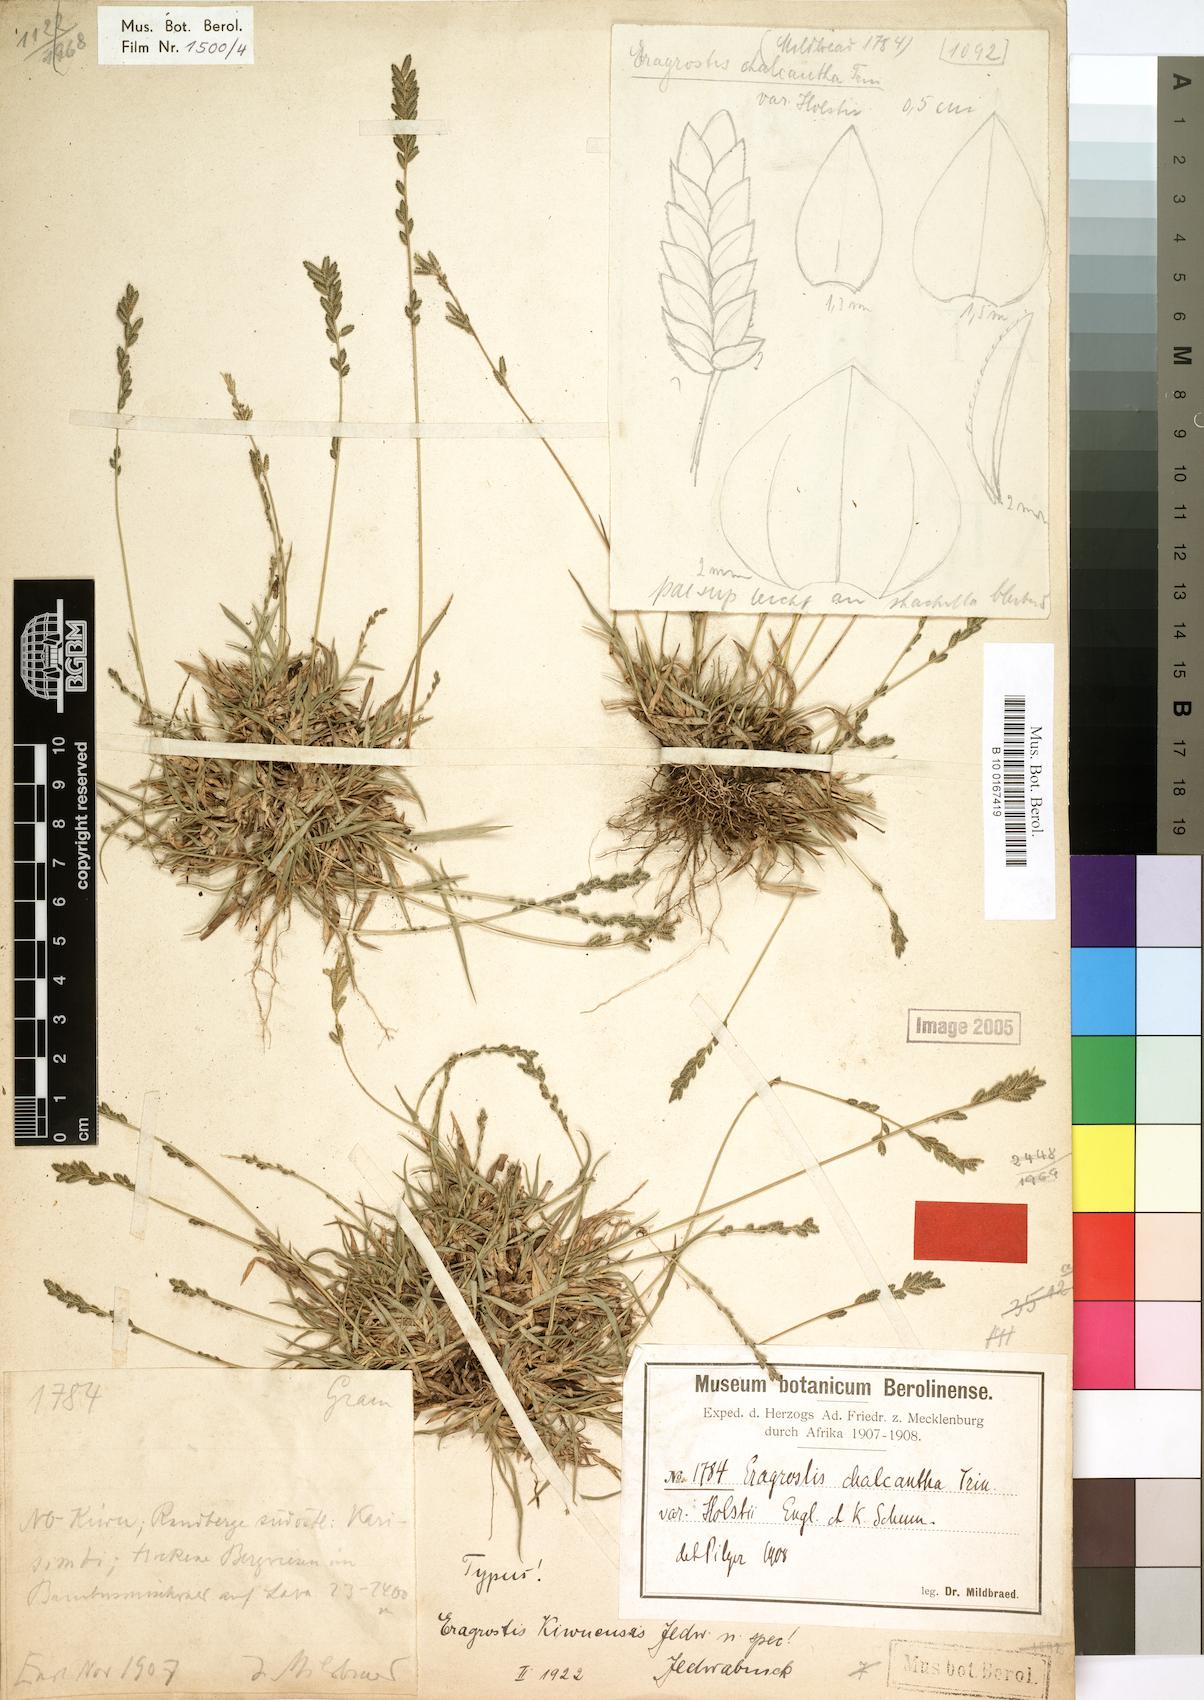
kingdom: Plantae
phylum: Tracheophyta
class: Liliopsida
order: Poales
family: Poaceae
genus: Eragrostis
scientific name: Eragrostis schweinfurthii
